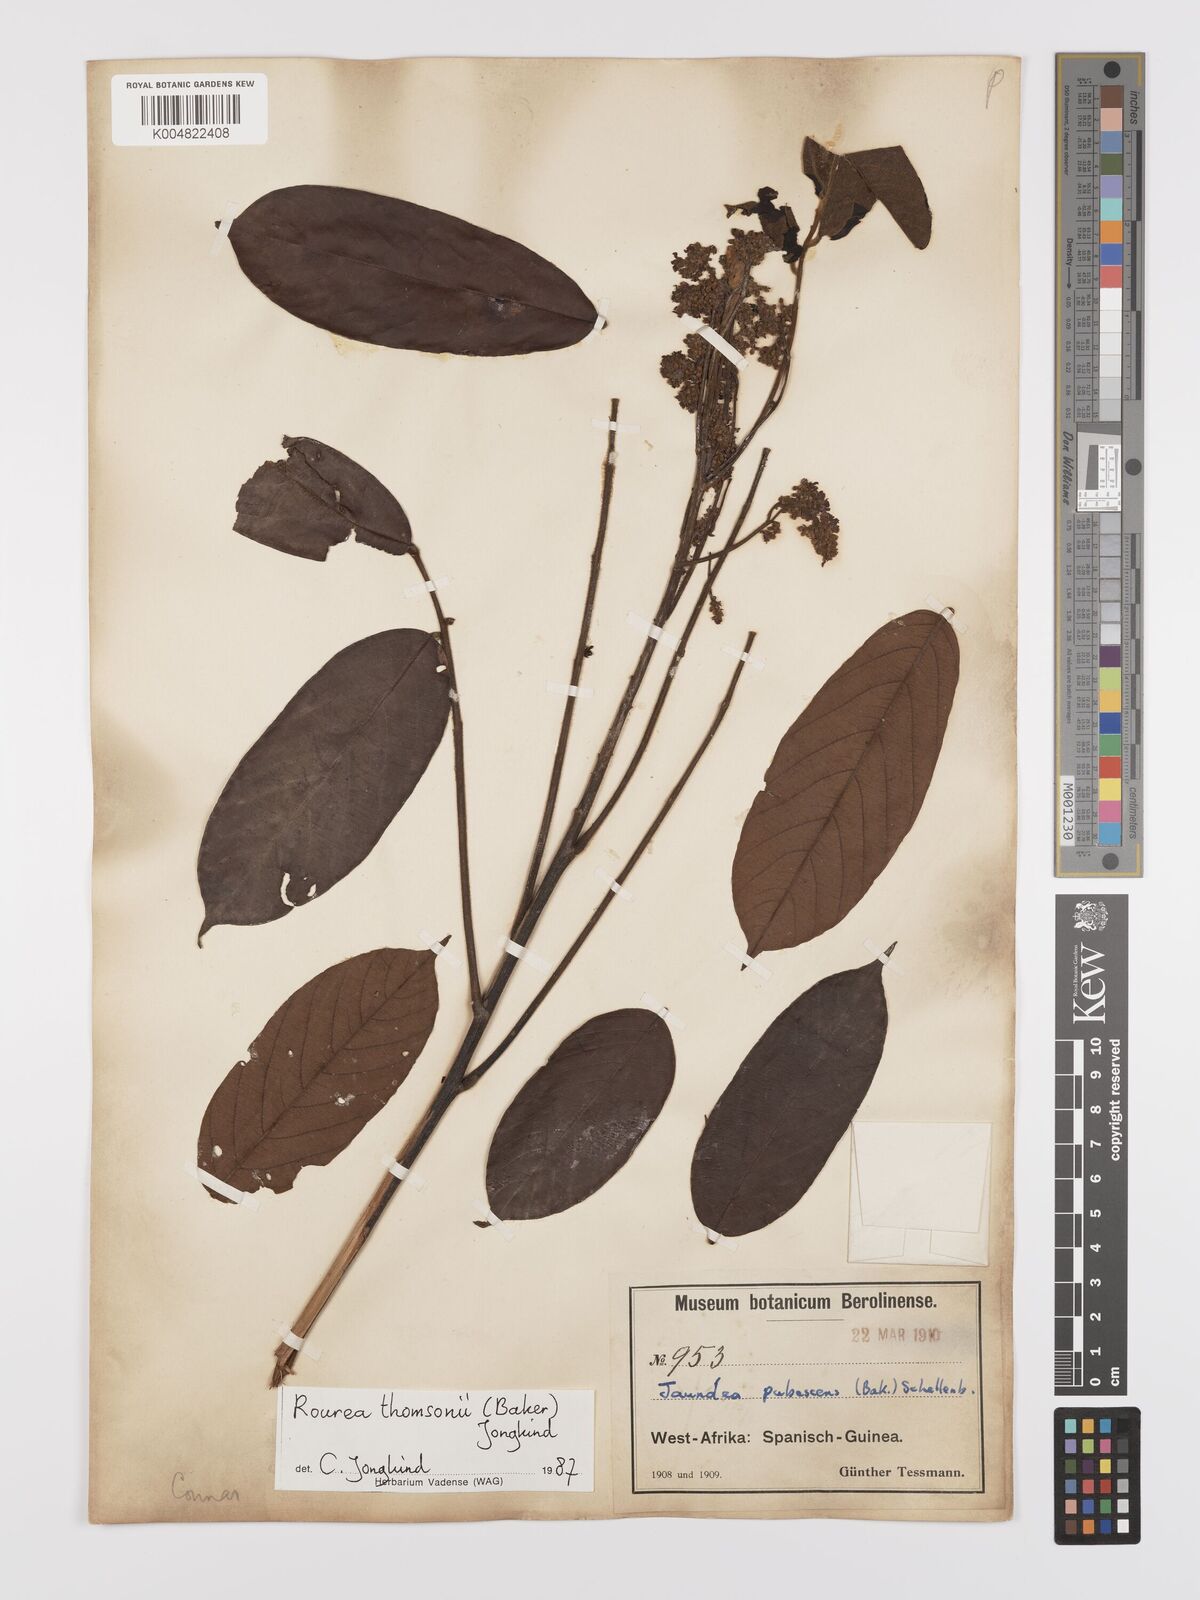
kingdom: Plantae
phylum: Tracheophyta
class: Magnoliopsida
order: Oxalidales
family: Connaraceae
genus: Rourea
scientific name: Rourea pubescens
